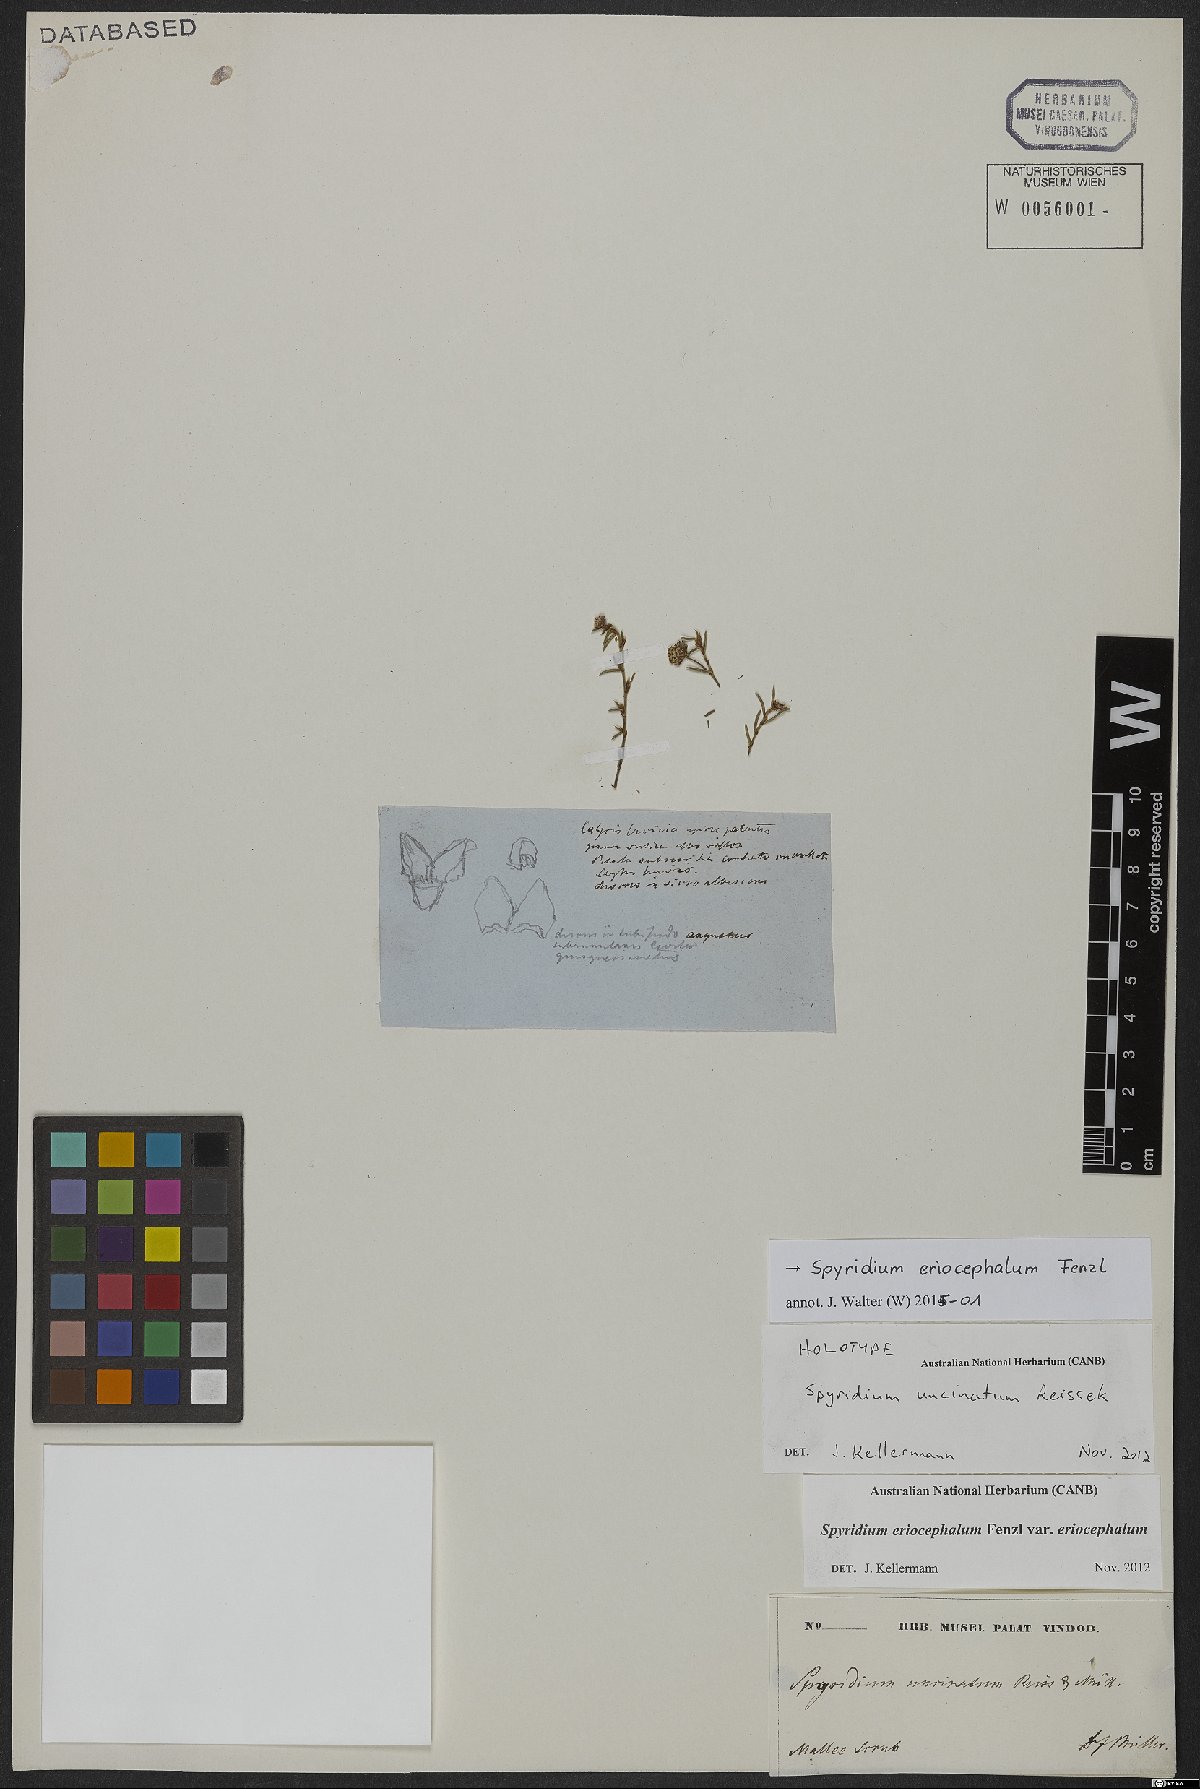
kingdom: Plantae
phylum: Tracheophyta
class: Magnoliopsida
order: Rosales
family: Rhamnaceae
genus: Spyridium
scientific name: Spyridium eriocephalum
